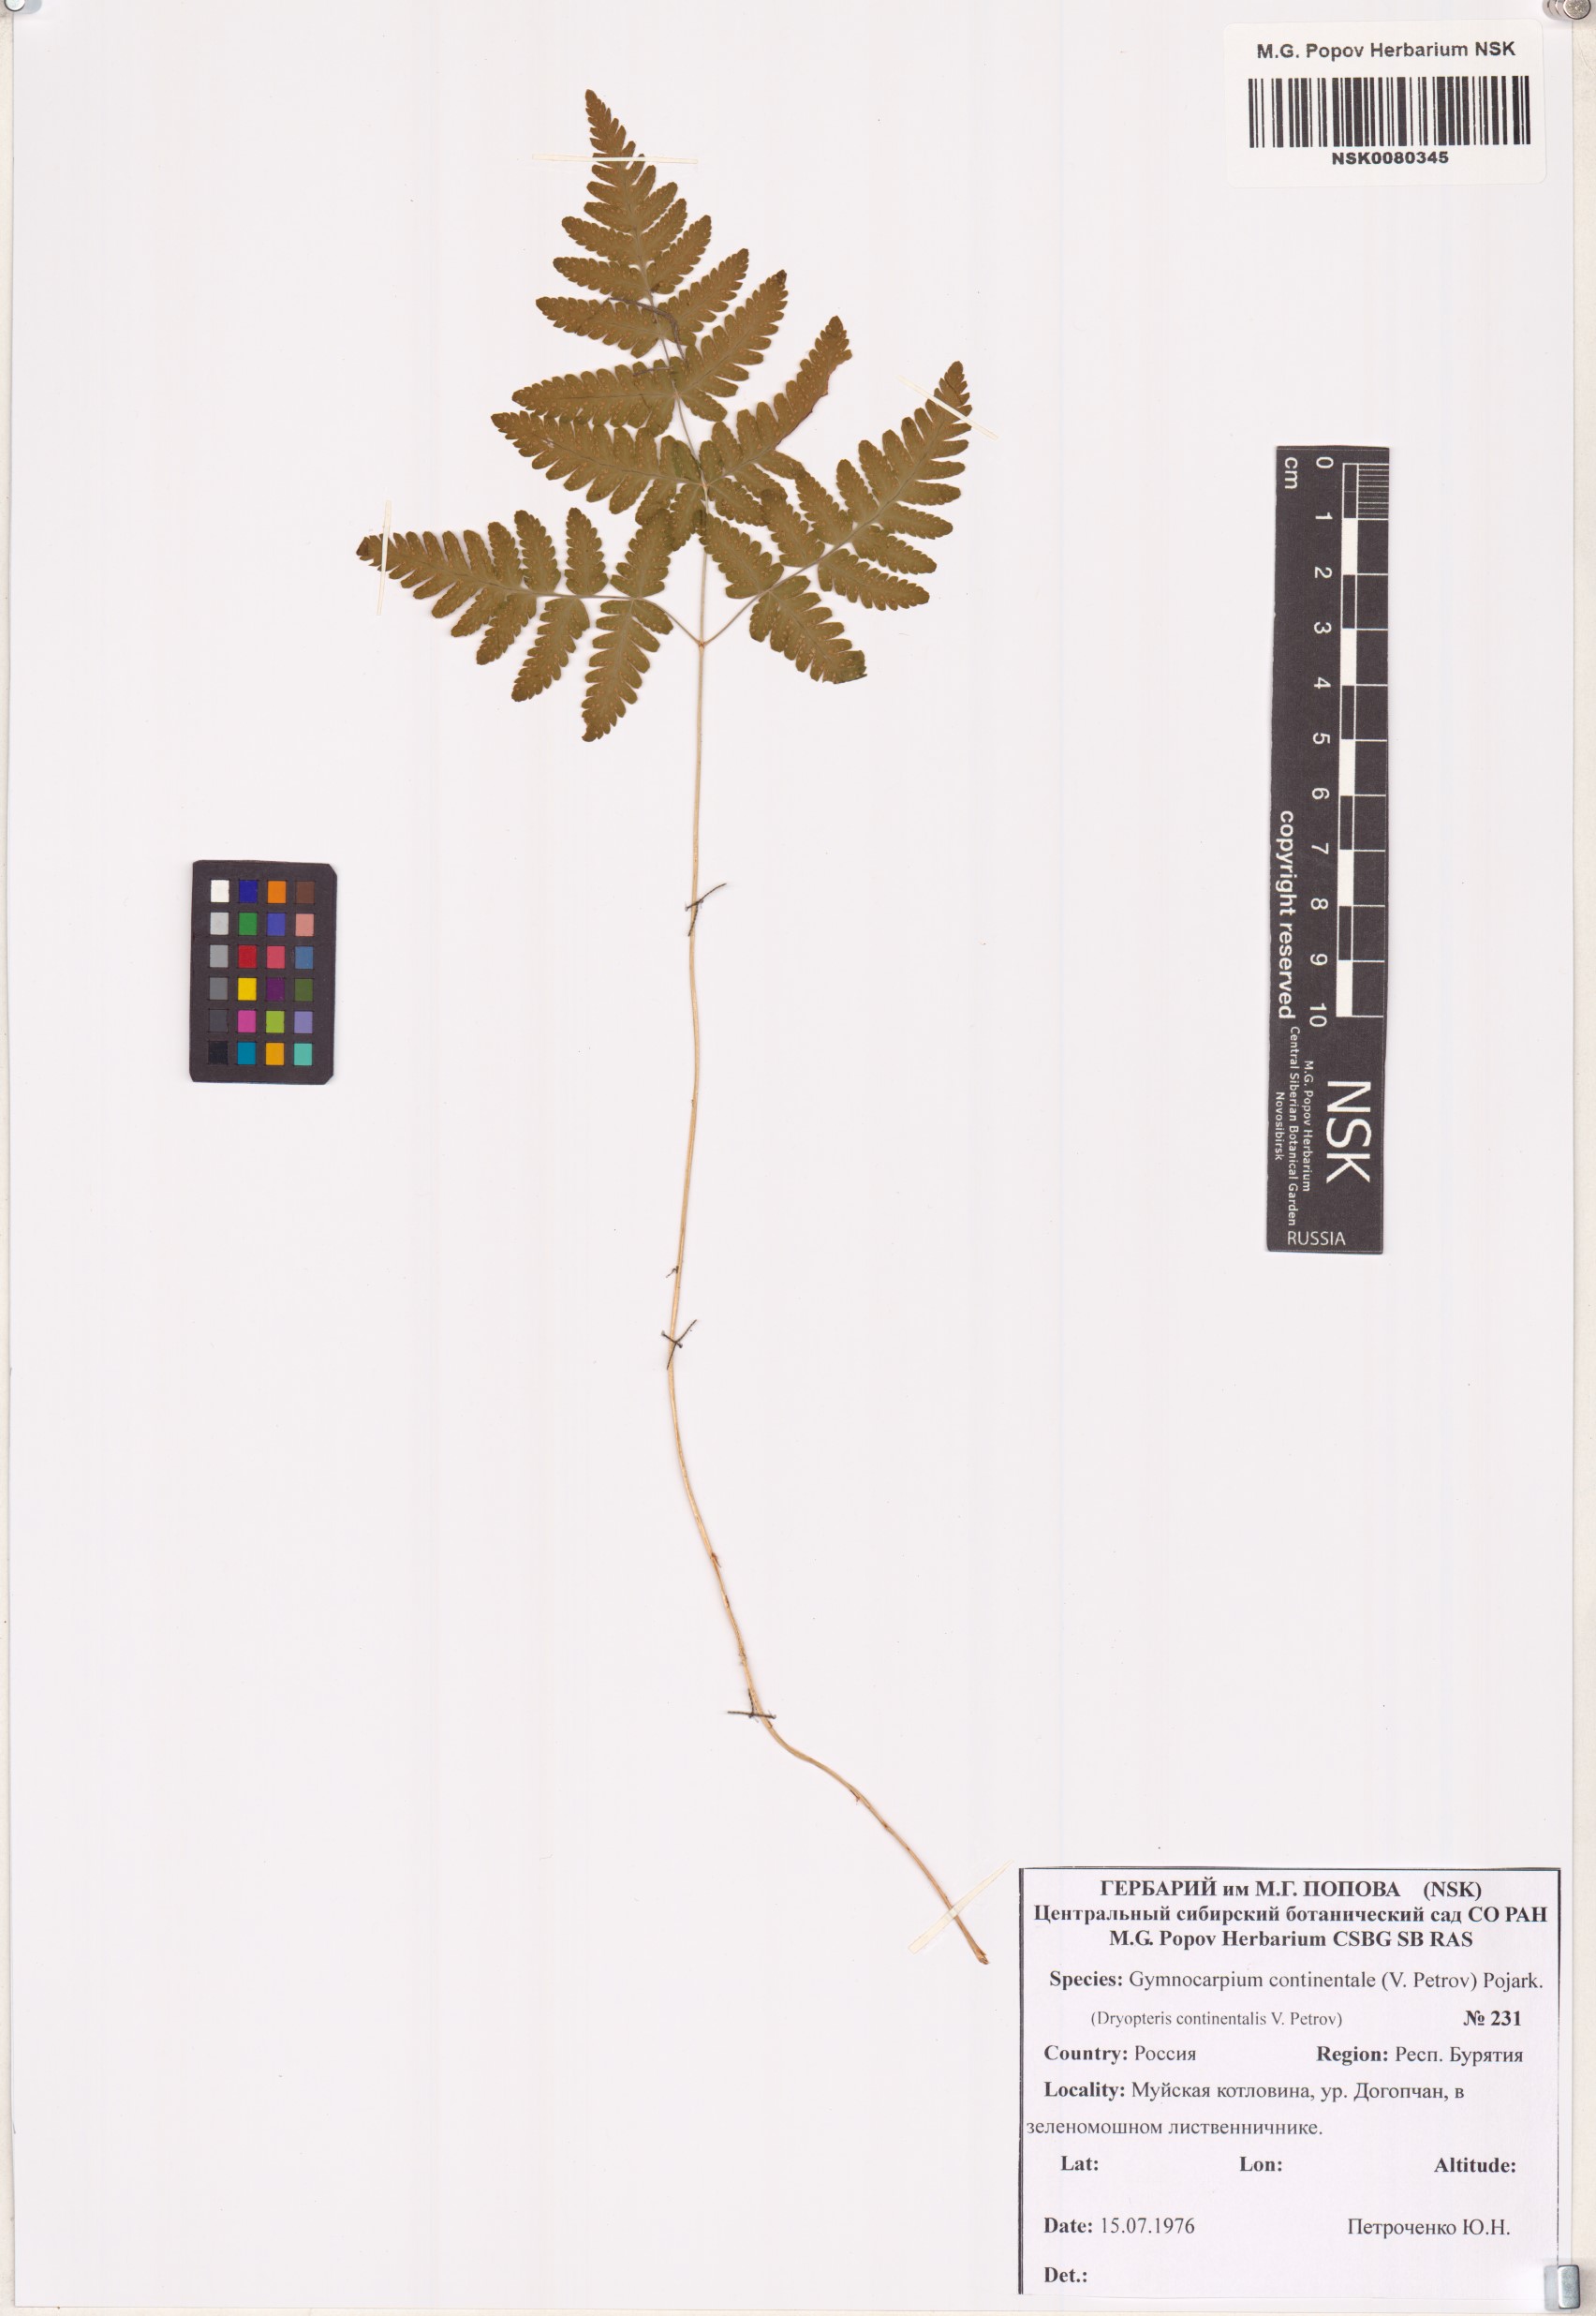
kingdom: Plantae
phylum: Tracheophyta
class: Polypodiopsida
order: Polypodiales
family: Cystopteridaceae
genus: Gymnocarpium
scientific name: Gymnocarpium continentale
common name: Asian oak fern
